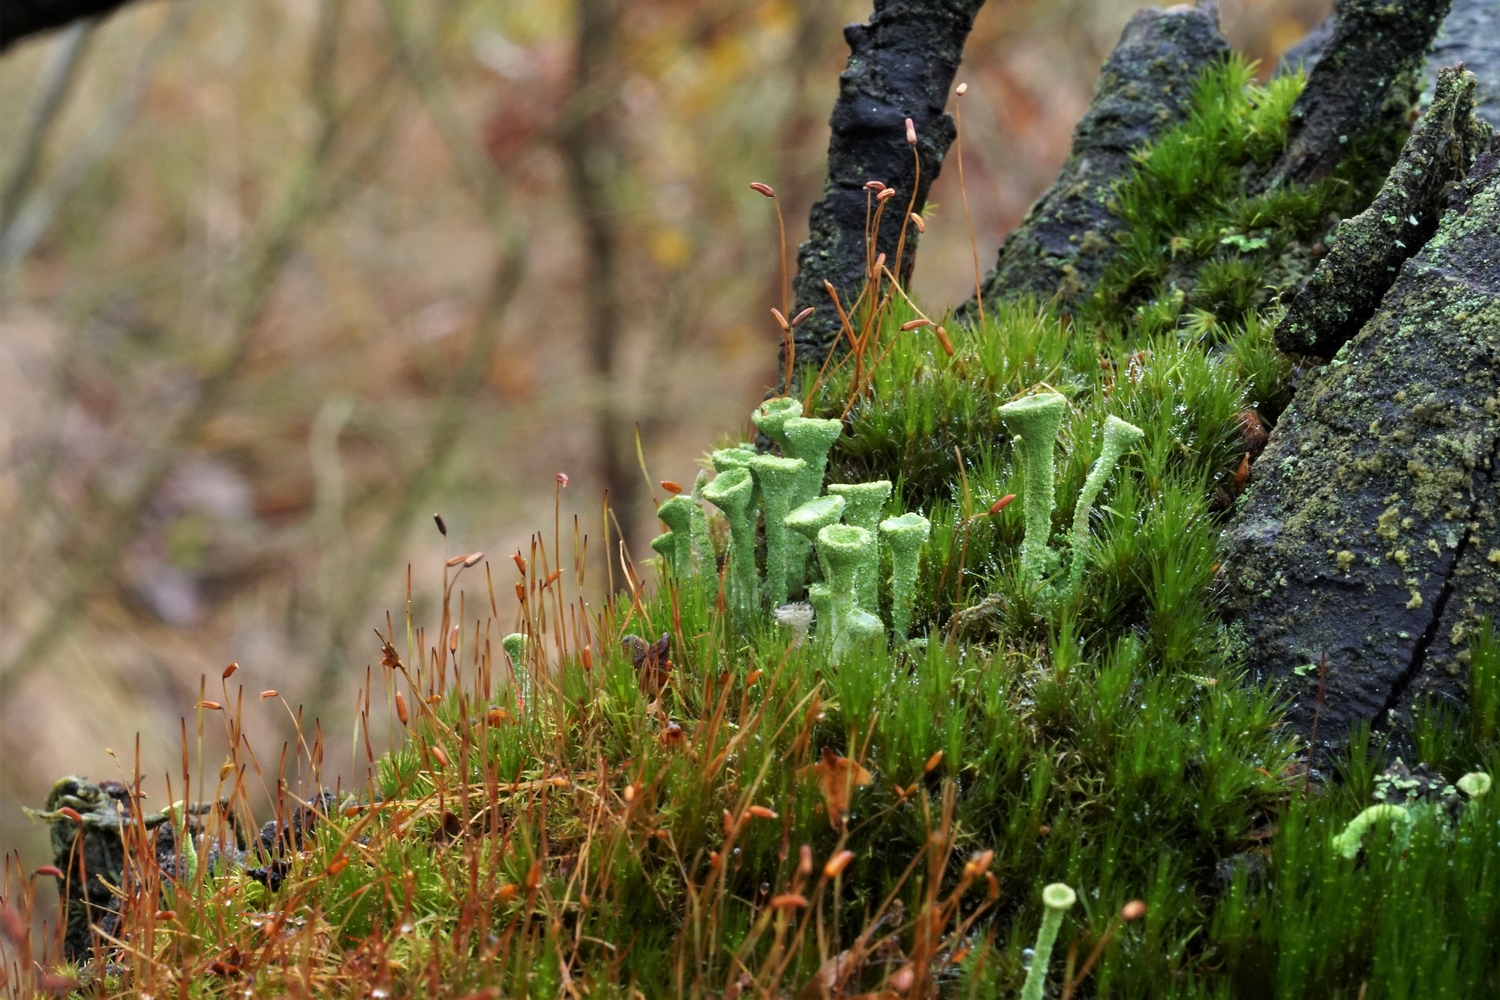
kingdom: Fungi
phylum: Ascomycota
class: Lecanoromycetes
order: Lecanorales
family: Cladoniaceae
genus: Cladonia
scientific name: Cladonia fimbriata
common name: bleggrøn bægerlav
